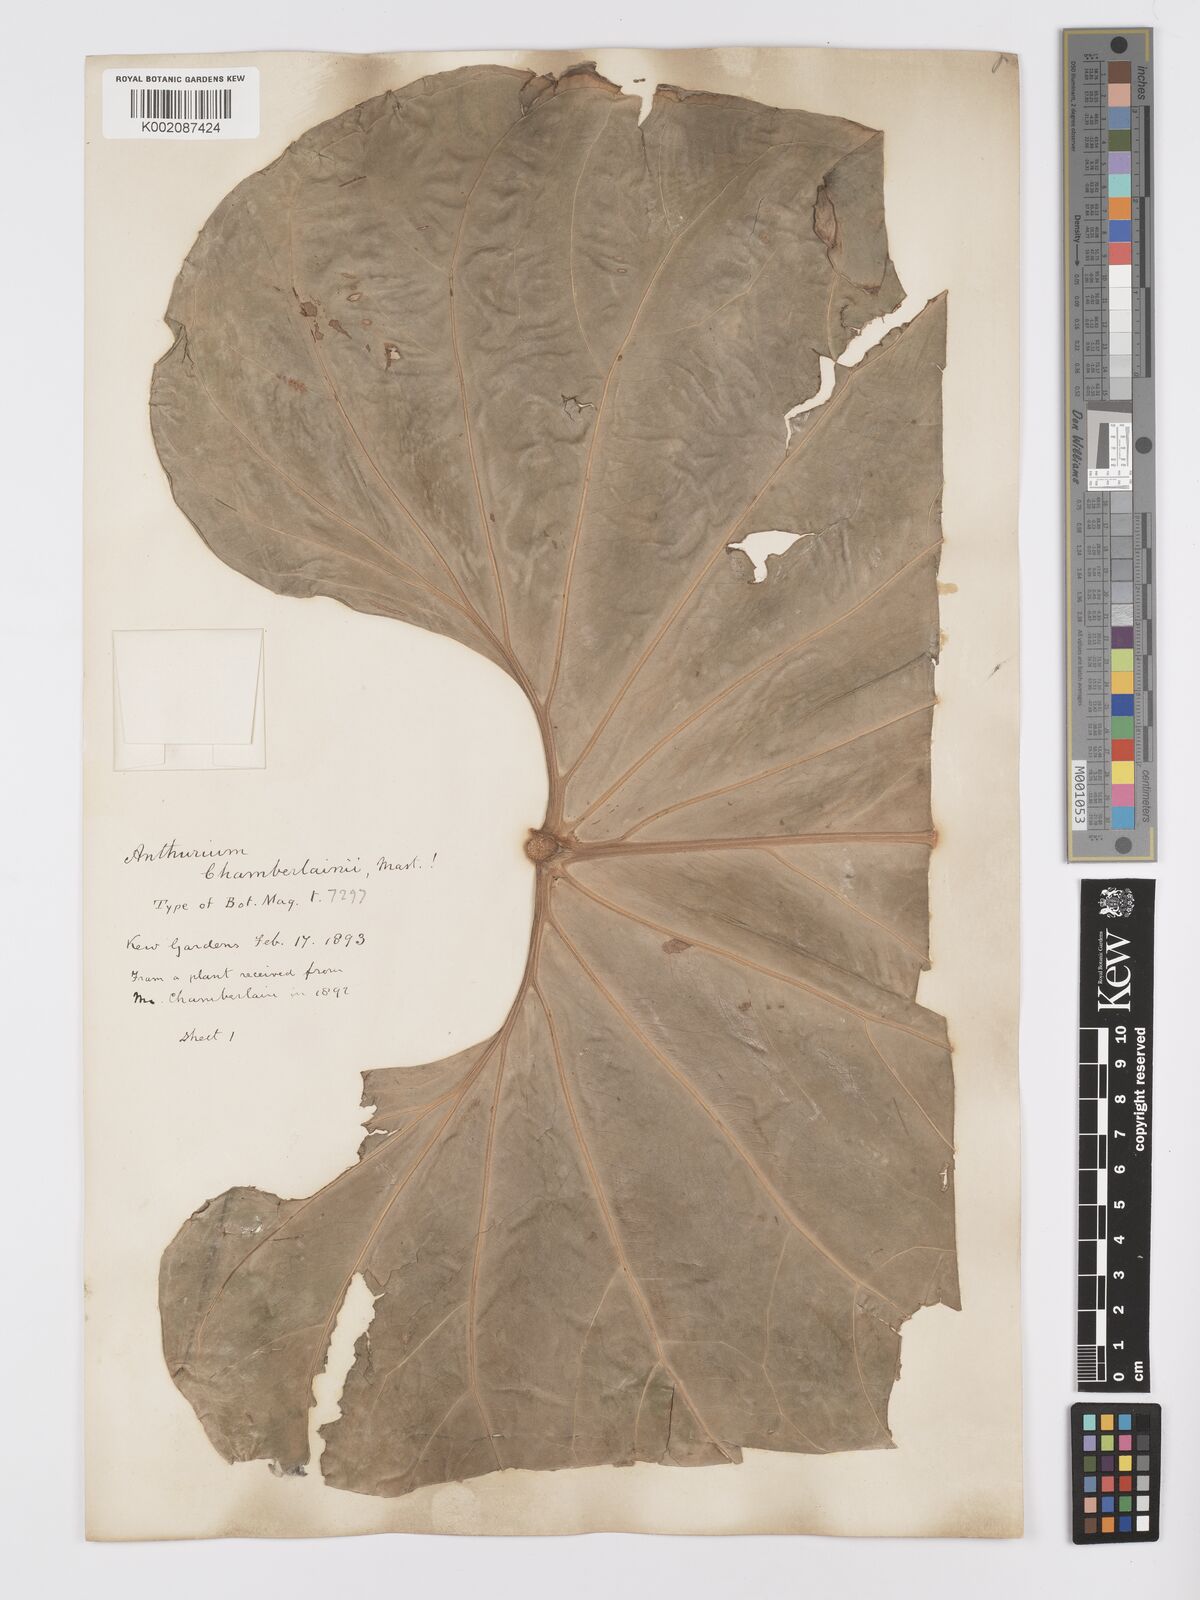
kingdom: Plantae
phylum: Tracheophyta
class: Liliopsida
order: Alismatales
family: Araceae
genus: Anthurium
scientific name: Anthurium chamberlainii
